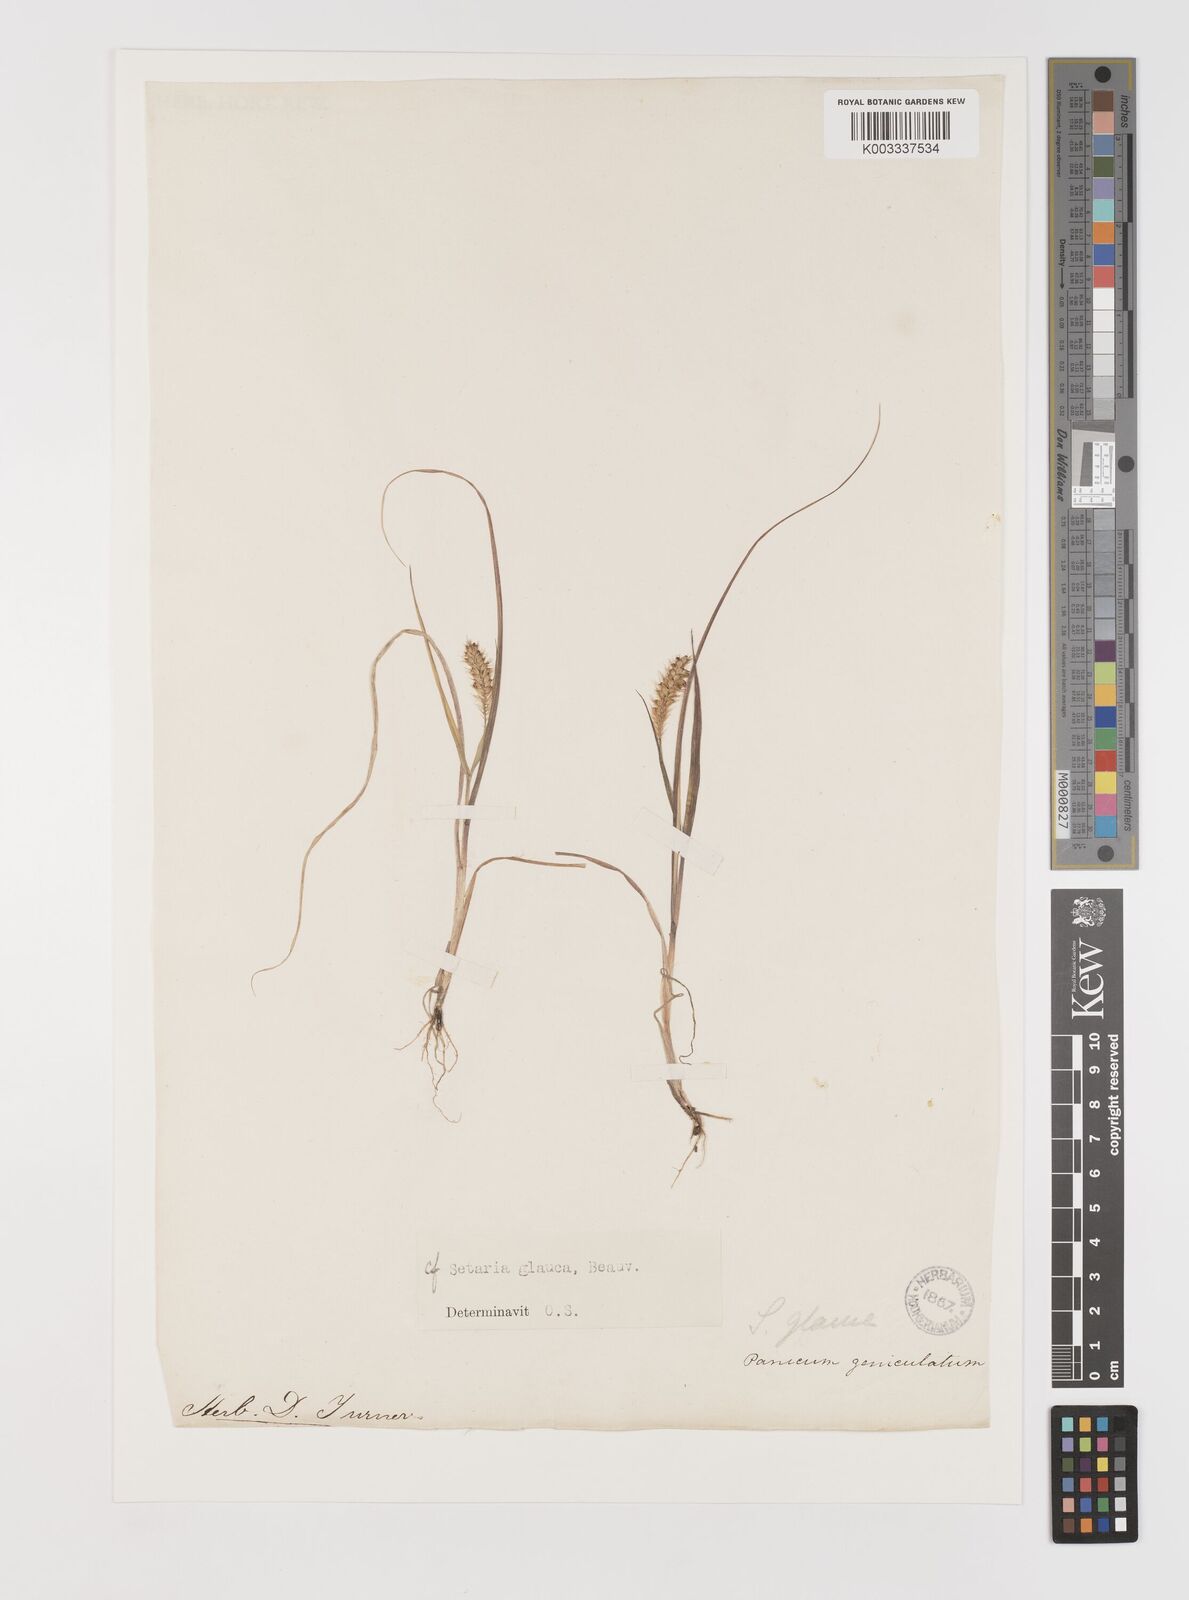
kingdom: Plantae
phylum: Tracheophyta
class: Liliopsida
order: Poales
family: Poaceae
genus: Setaria
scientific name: Setaria pumila
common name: Yellow bristle-grass
